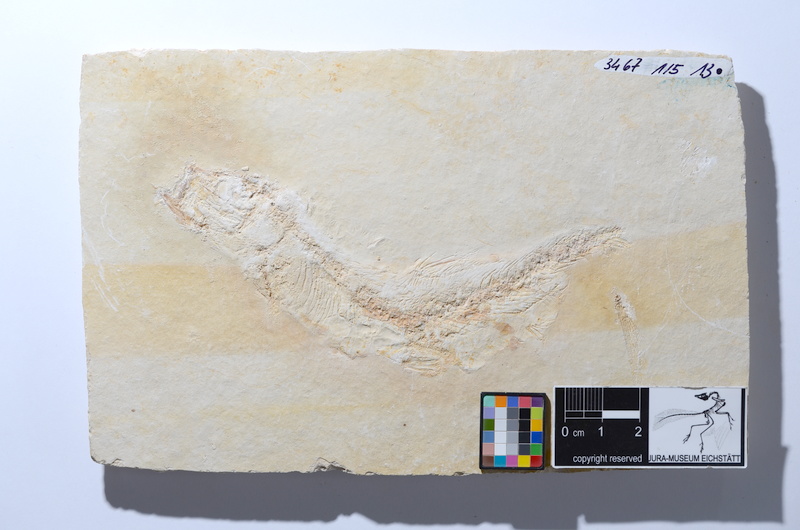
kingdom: Animalia
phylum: Chordata
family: Ascalaboidae
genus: Tharsis
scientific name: Tharsis dubius
